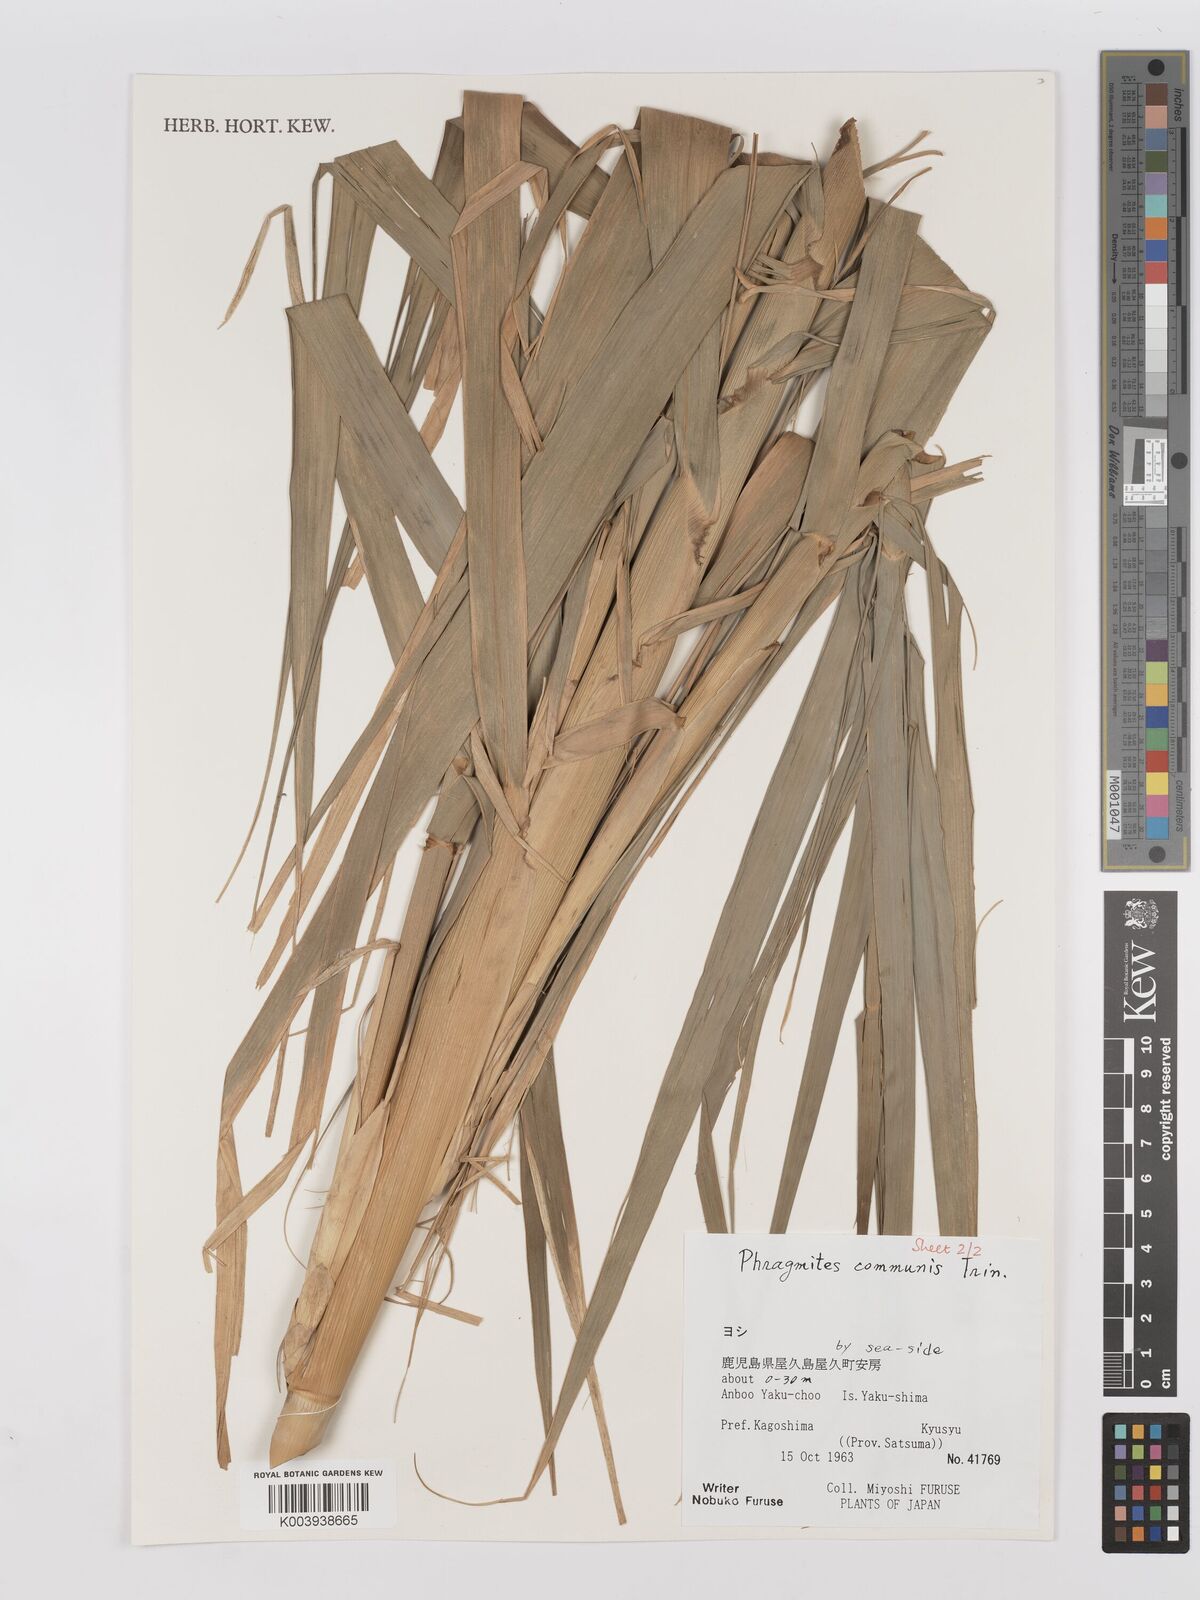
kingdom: Plantae
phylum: Tracheophyta
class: Liliopsida
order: Poales
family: Poaceae
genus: Phragmites
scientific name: Phragmites australis
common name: Common reed
